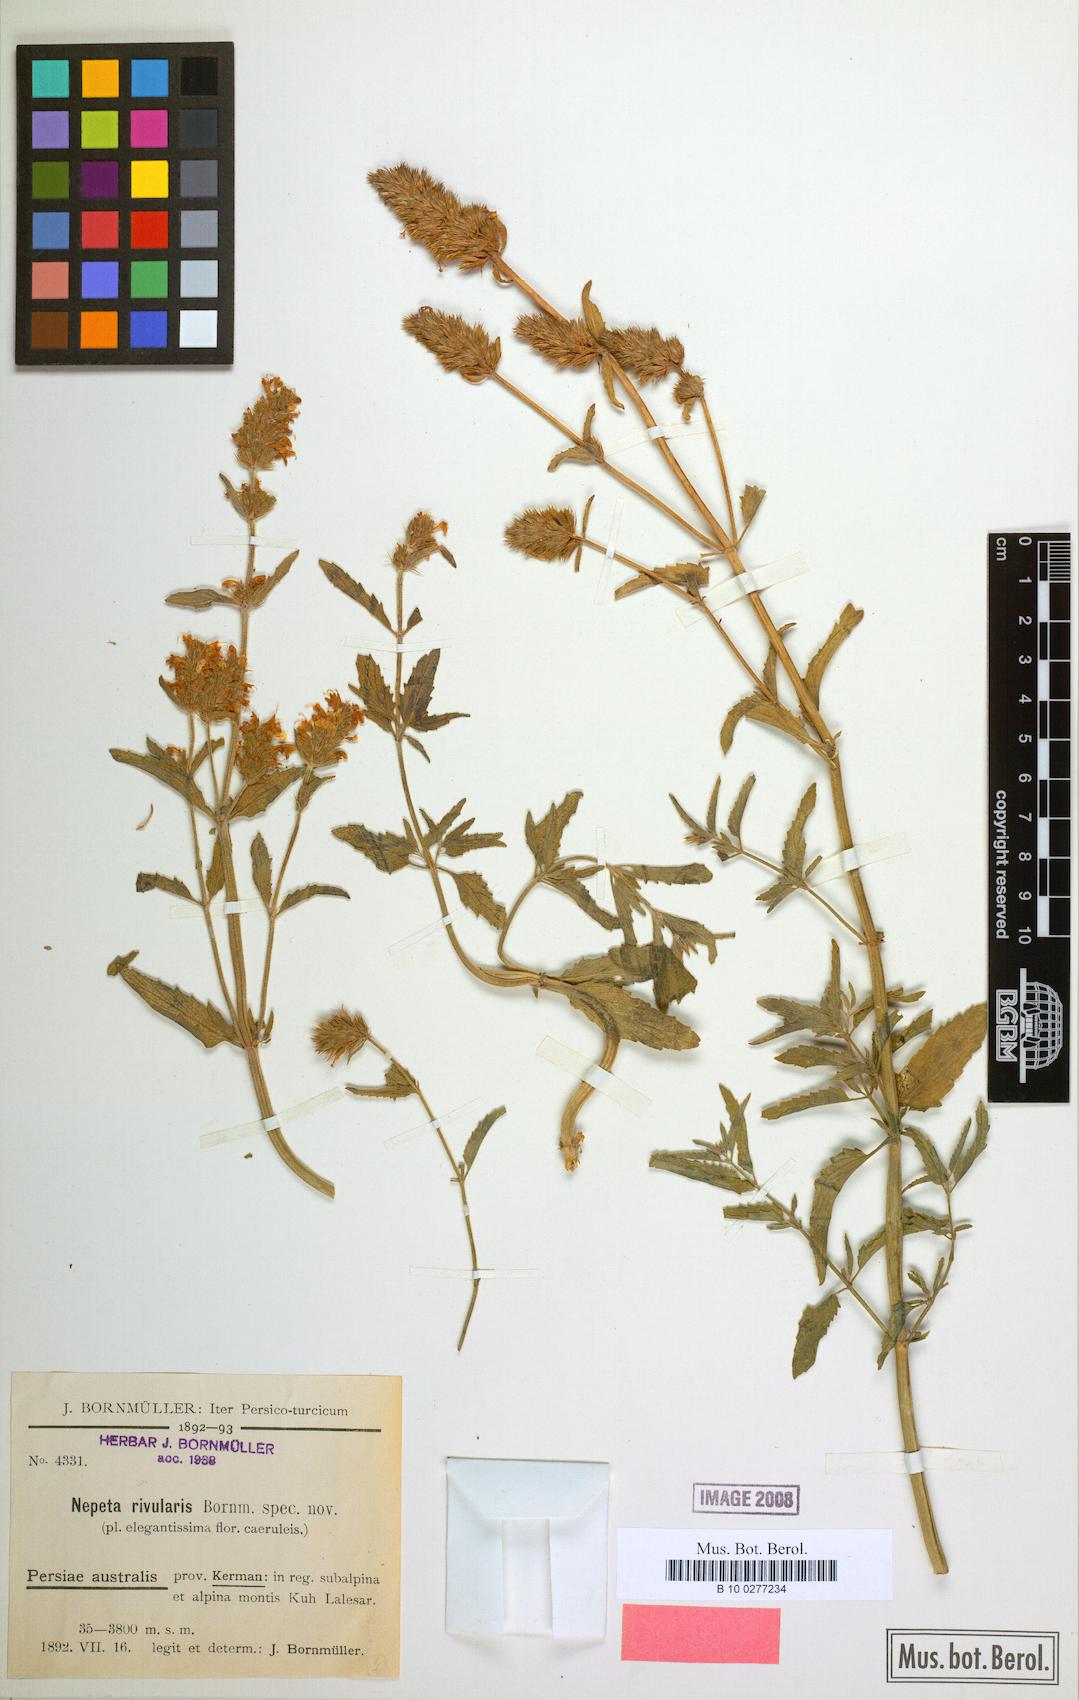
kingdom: Plantae
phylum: Tracheophyta
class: Magnoliopsida
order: Lamiales
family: Lamiaceae
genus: Nepeta
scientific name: Nepeta rivularis
